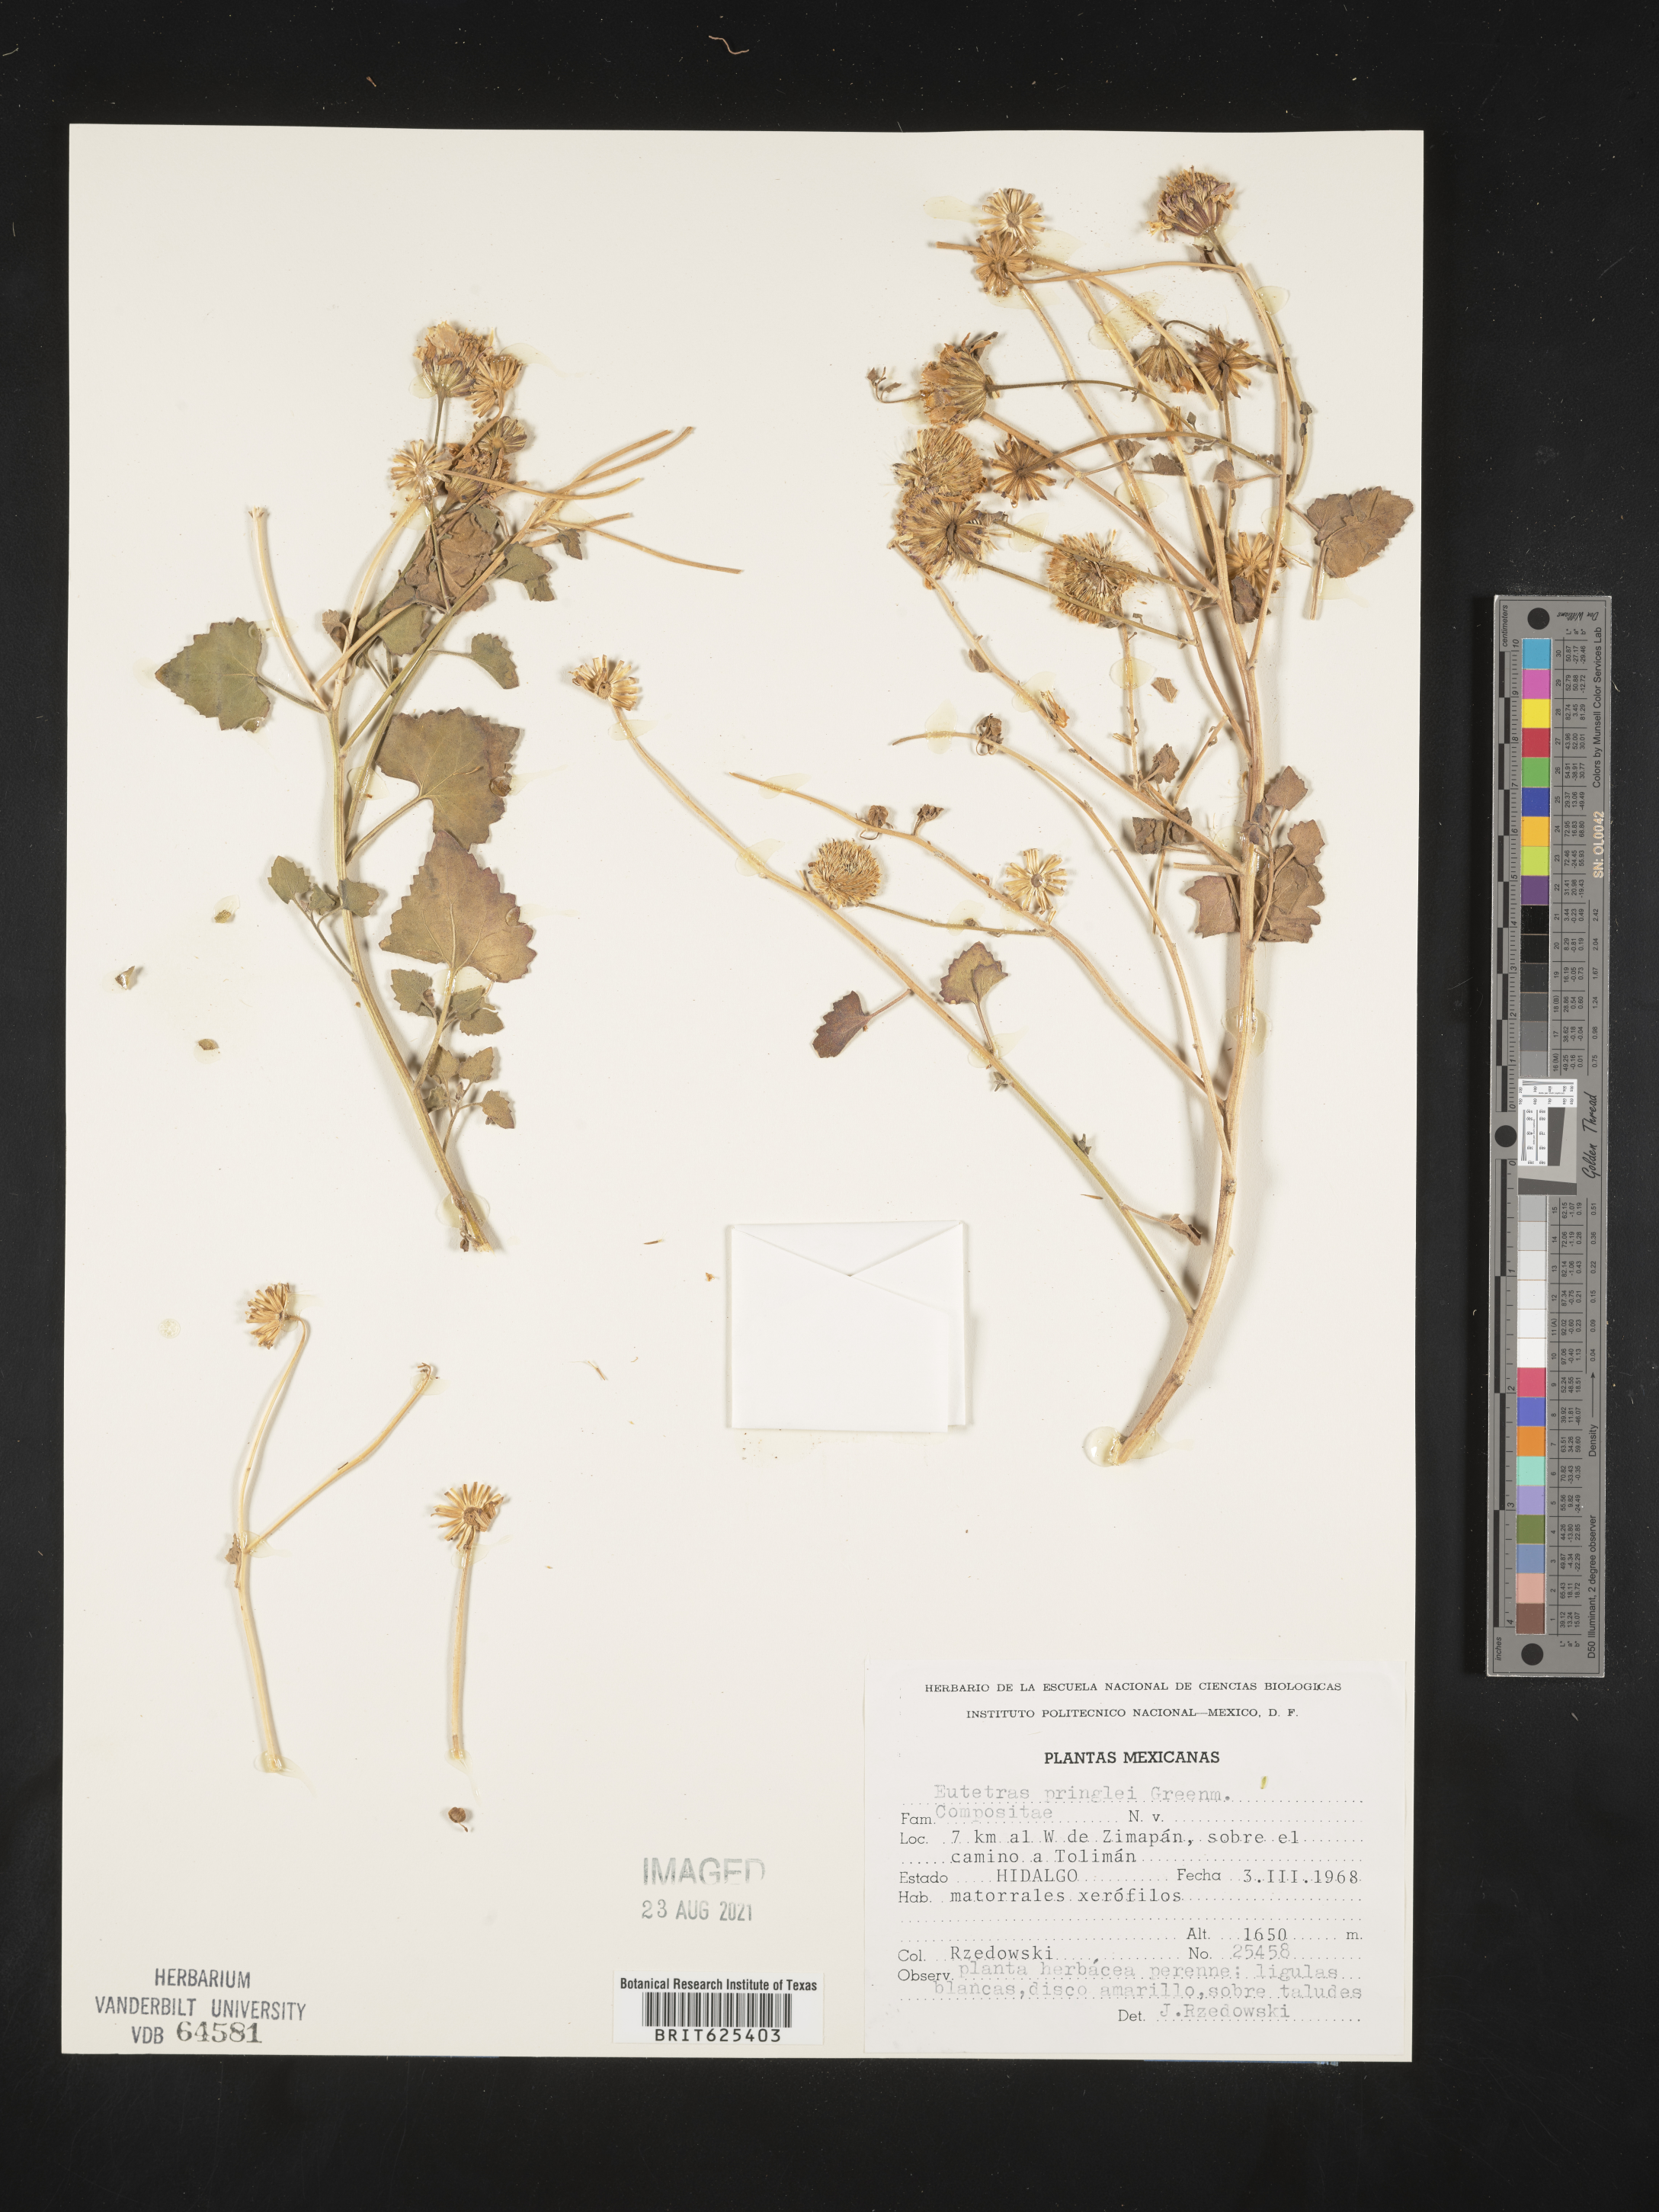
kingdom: Plantae
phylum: Tracheophyta
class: Magnoliopsida
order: Asterales
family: Asteraceae
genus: Eutetras
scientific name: Eutetras
